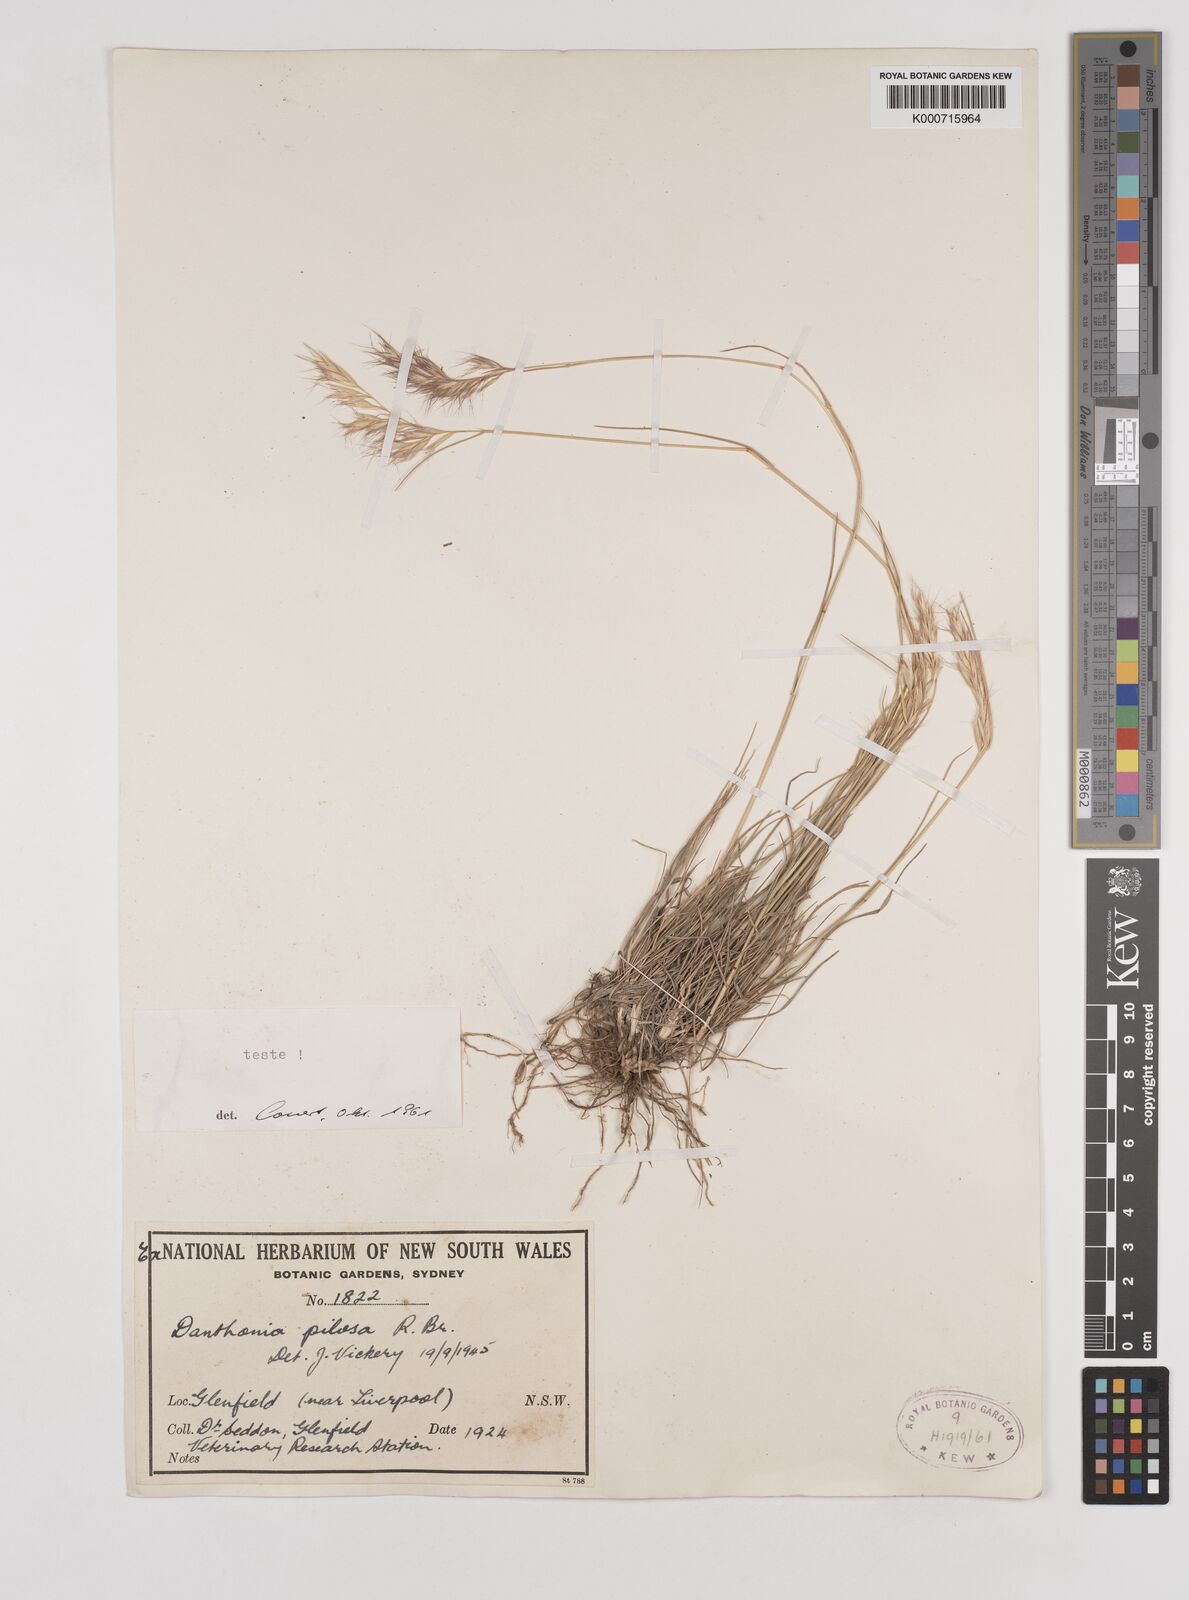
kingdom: Plantae
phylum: Tracheophyta
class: Liliopsida
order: Poales
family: Poaceae
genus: Rytidosperma
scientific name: Rytidosperma pilosum
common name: Hairy wallaby grass
